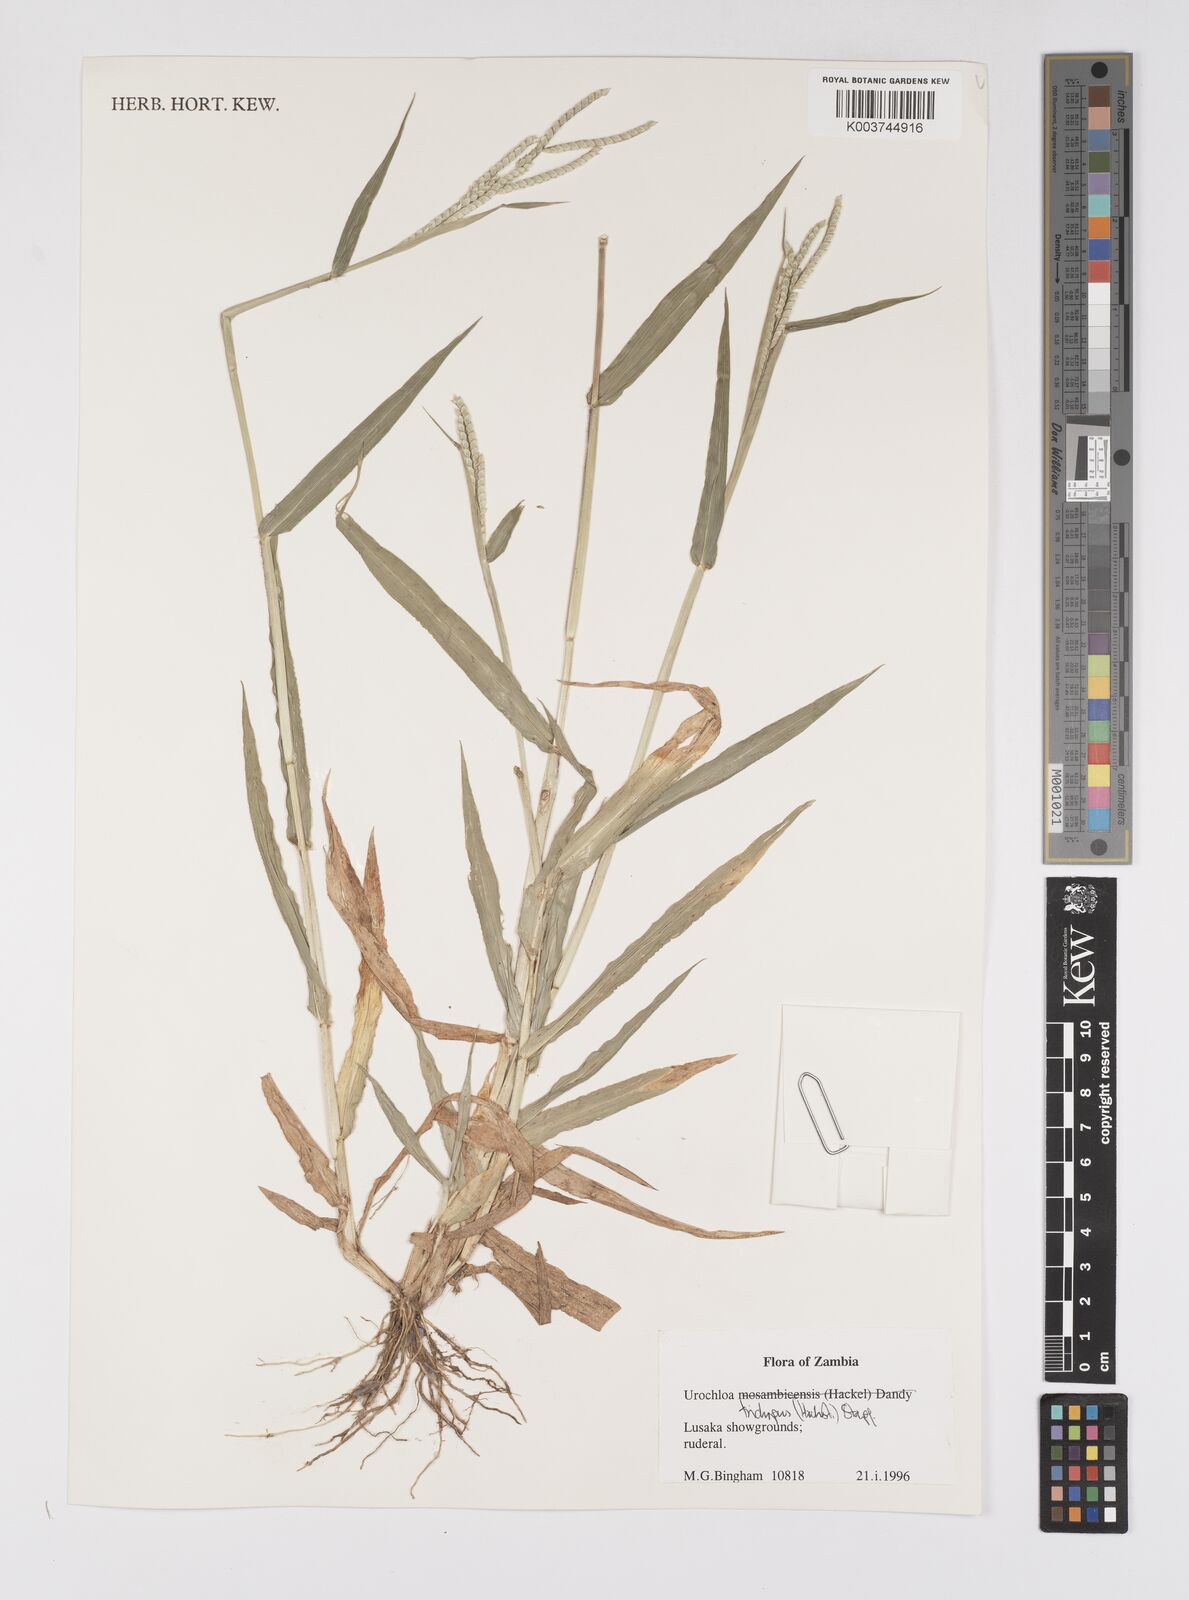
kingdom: Plantae
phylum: Tracheophyta
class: Liliopsida
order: Poales
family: Poaceae
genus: Urochloa
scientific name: Urochloa trichopus
